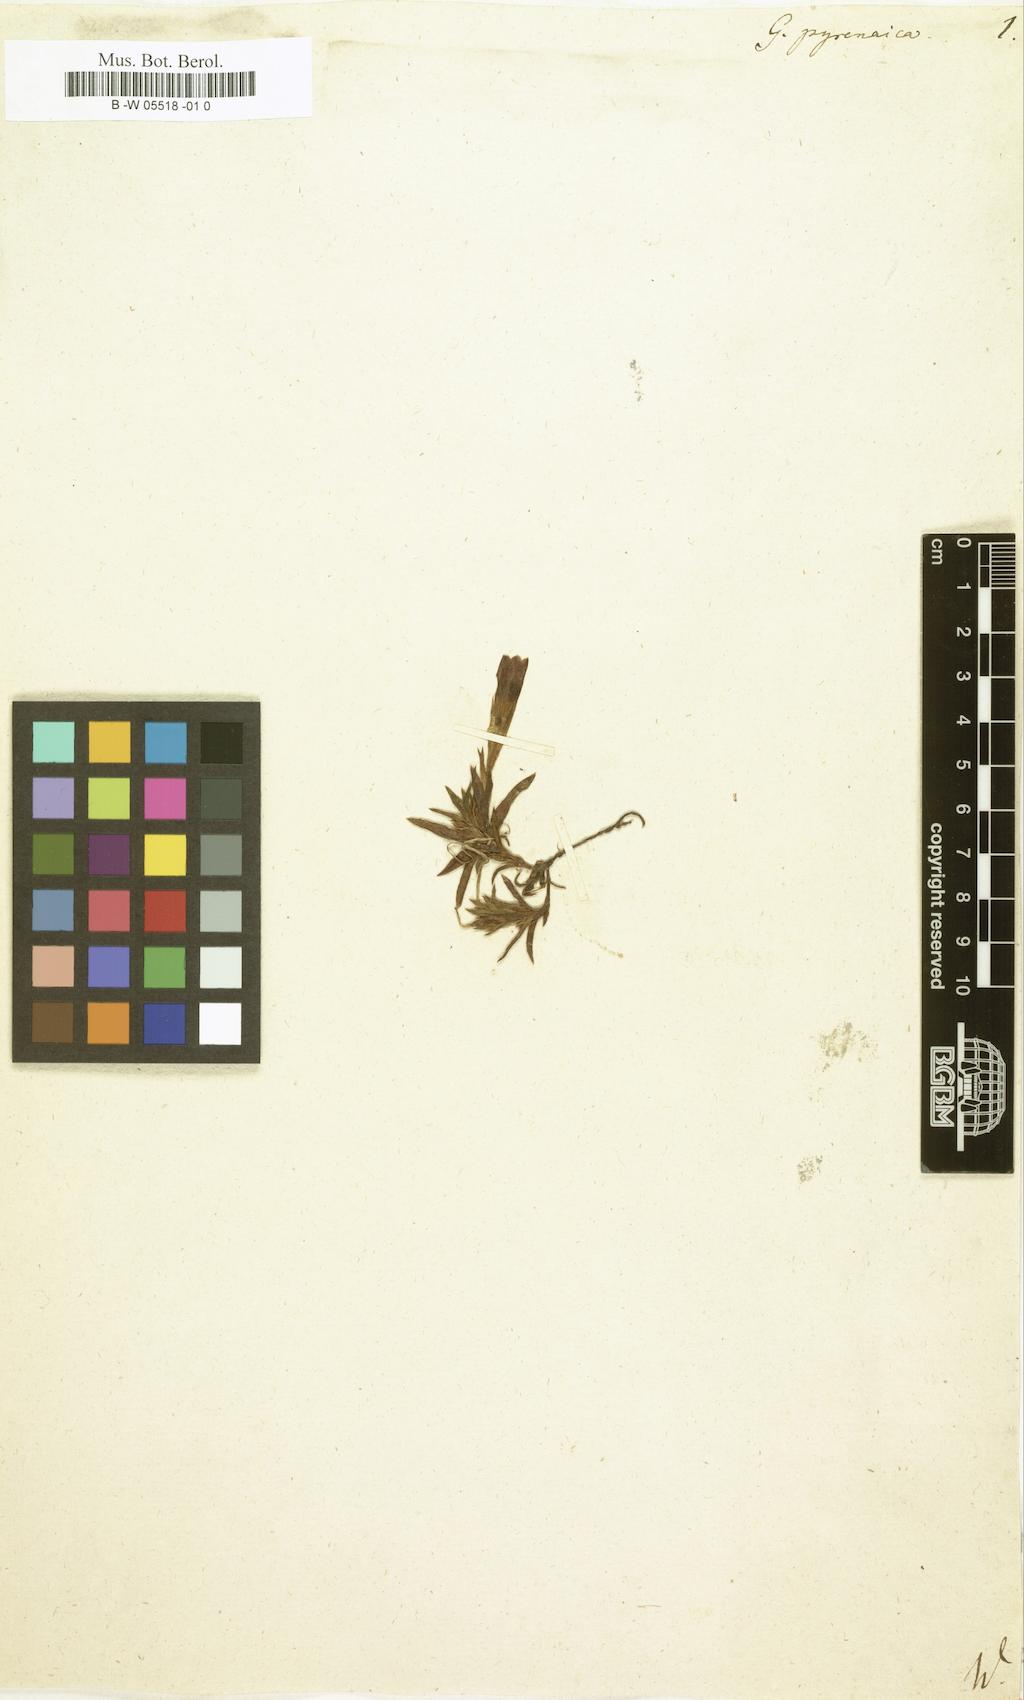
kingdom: Plantae
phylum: Tracheophyta
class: Magnoliopsida
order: Gentianales
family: Gentianaceae
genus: Gentiana
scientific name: Gentiana pyrenaica
